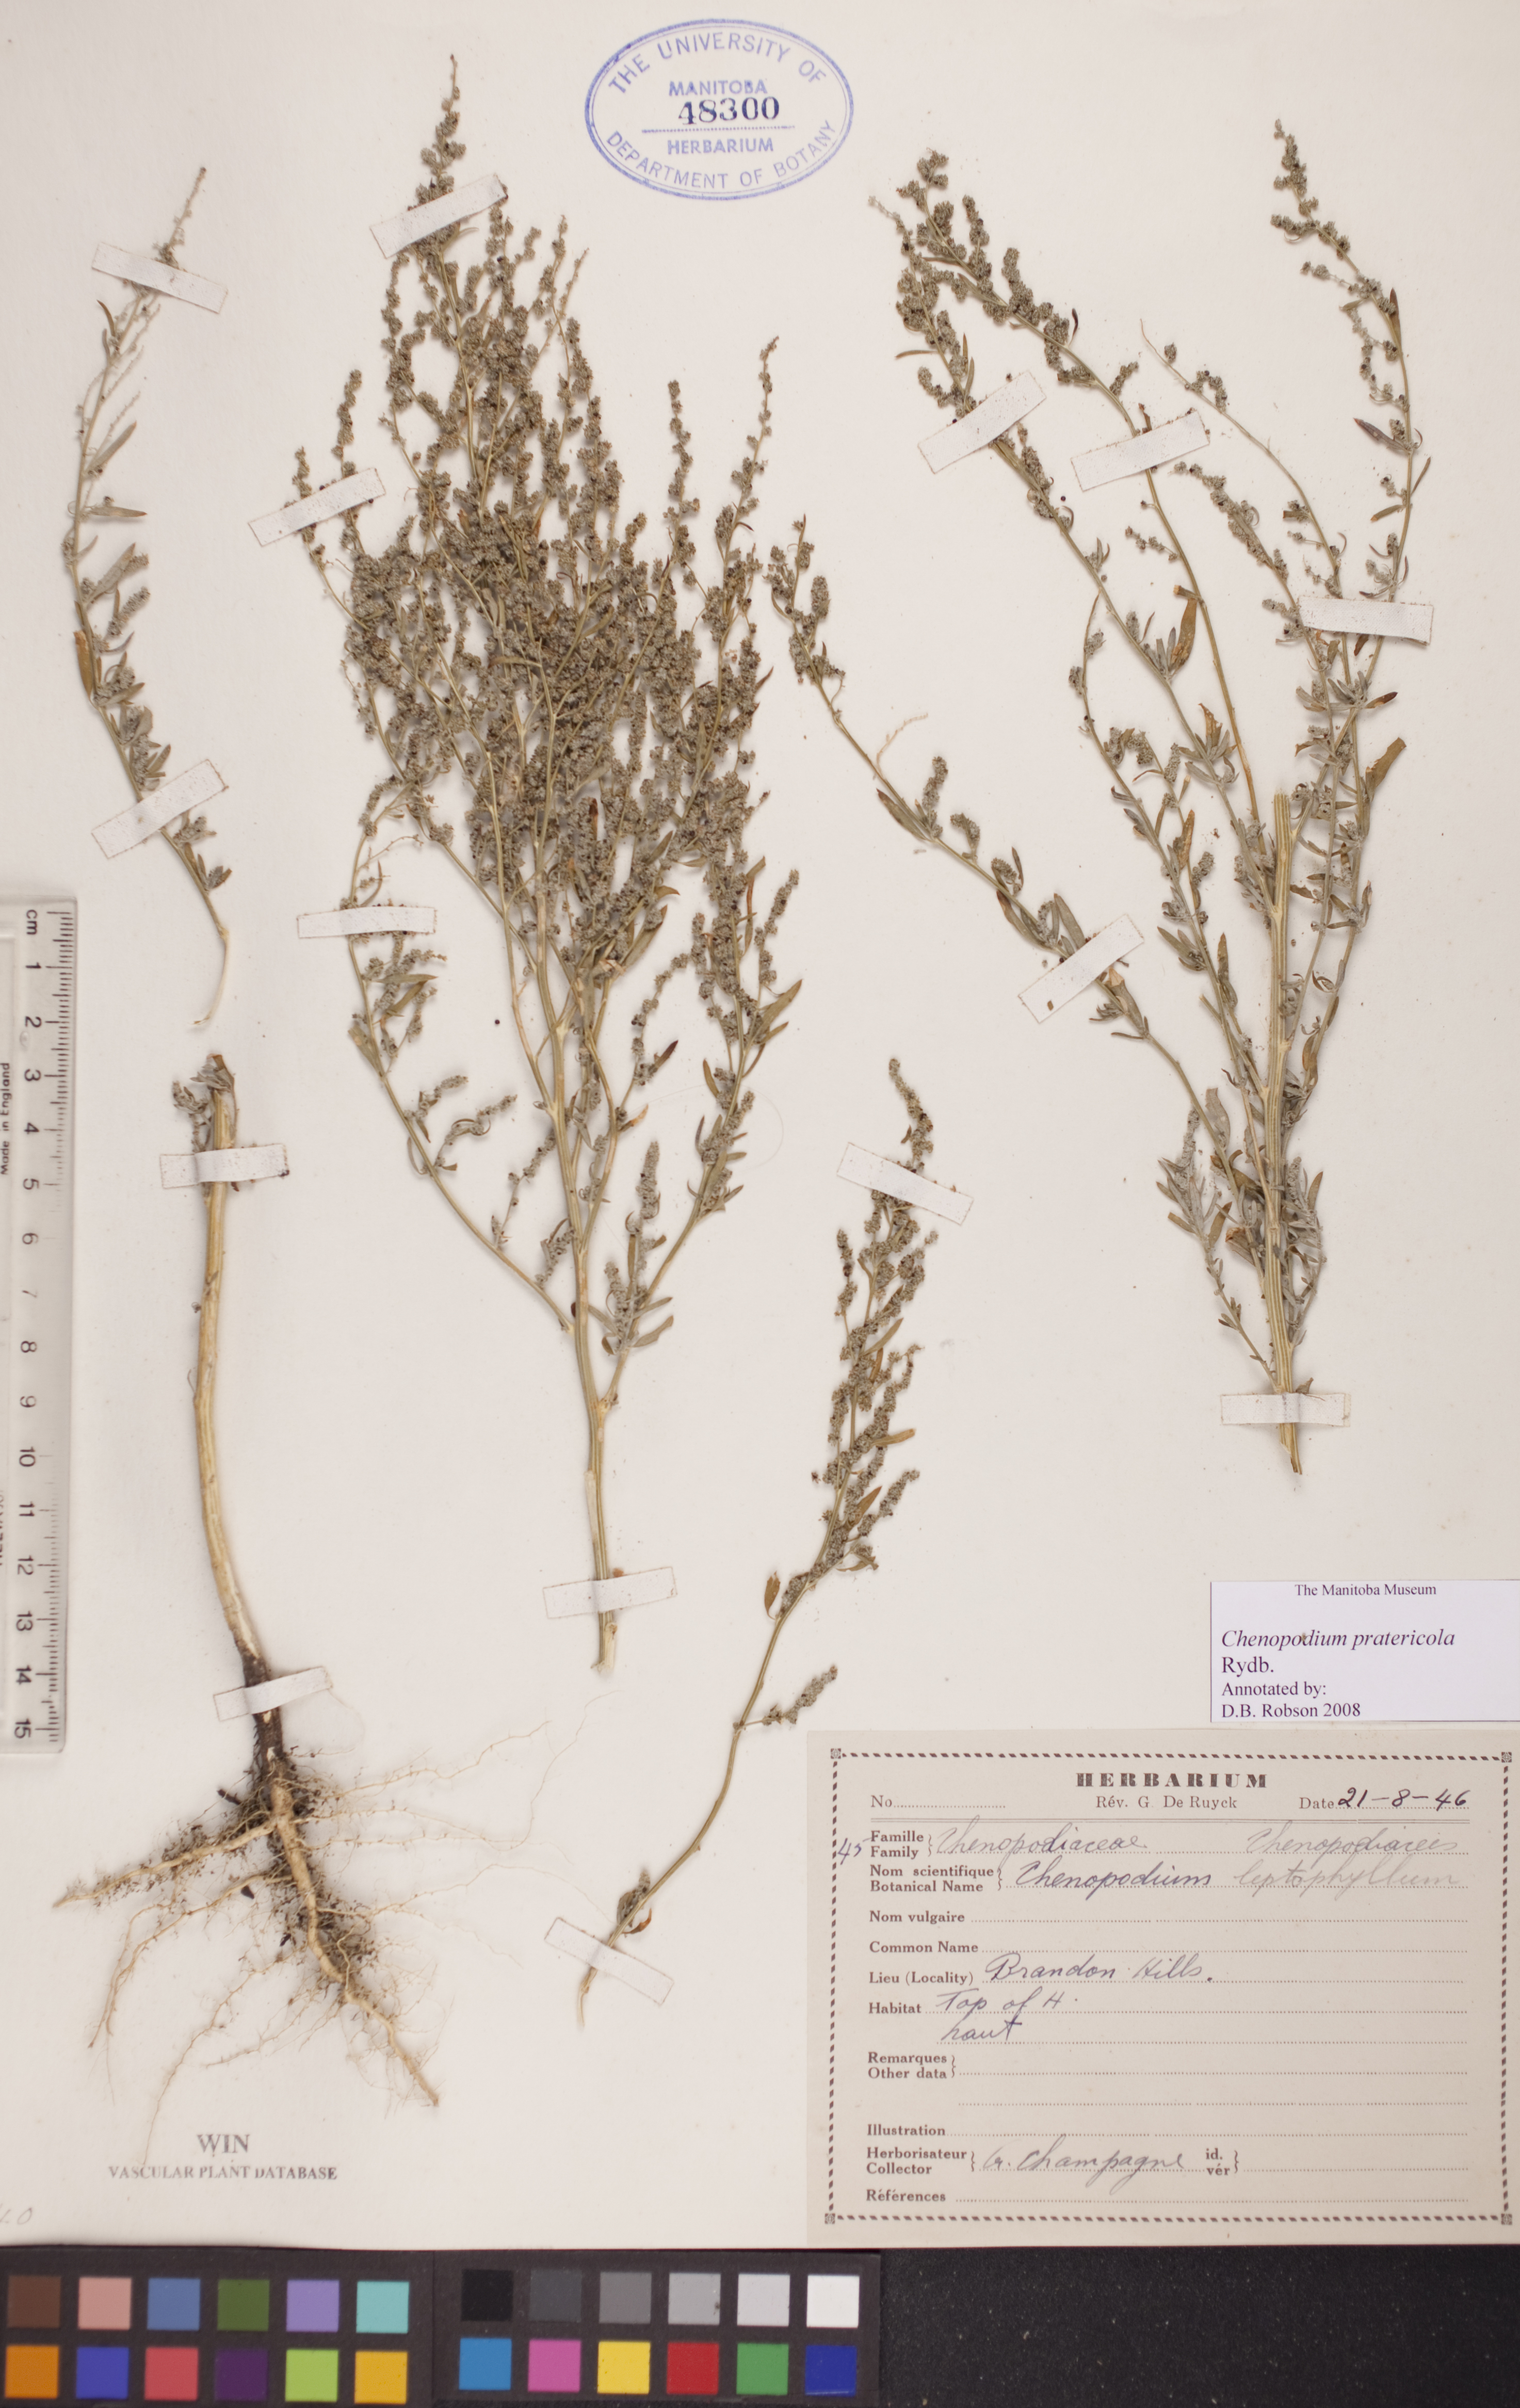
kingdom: Plantae
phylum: Tracheophyta
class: Magnoliopsida
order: Caryophyllales
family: Amaranthaceae
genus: Chenopodium
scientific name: Chenopodium pratericola
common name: Desert goosefoot
